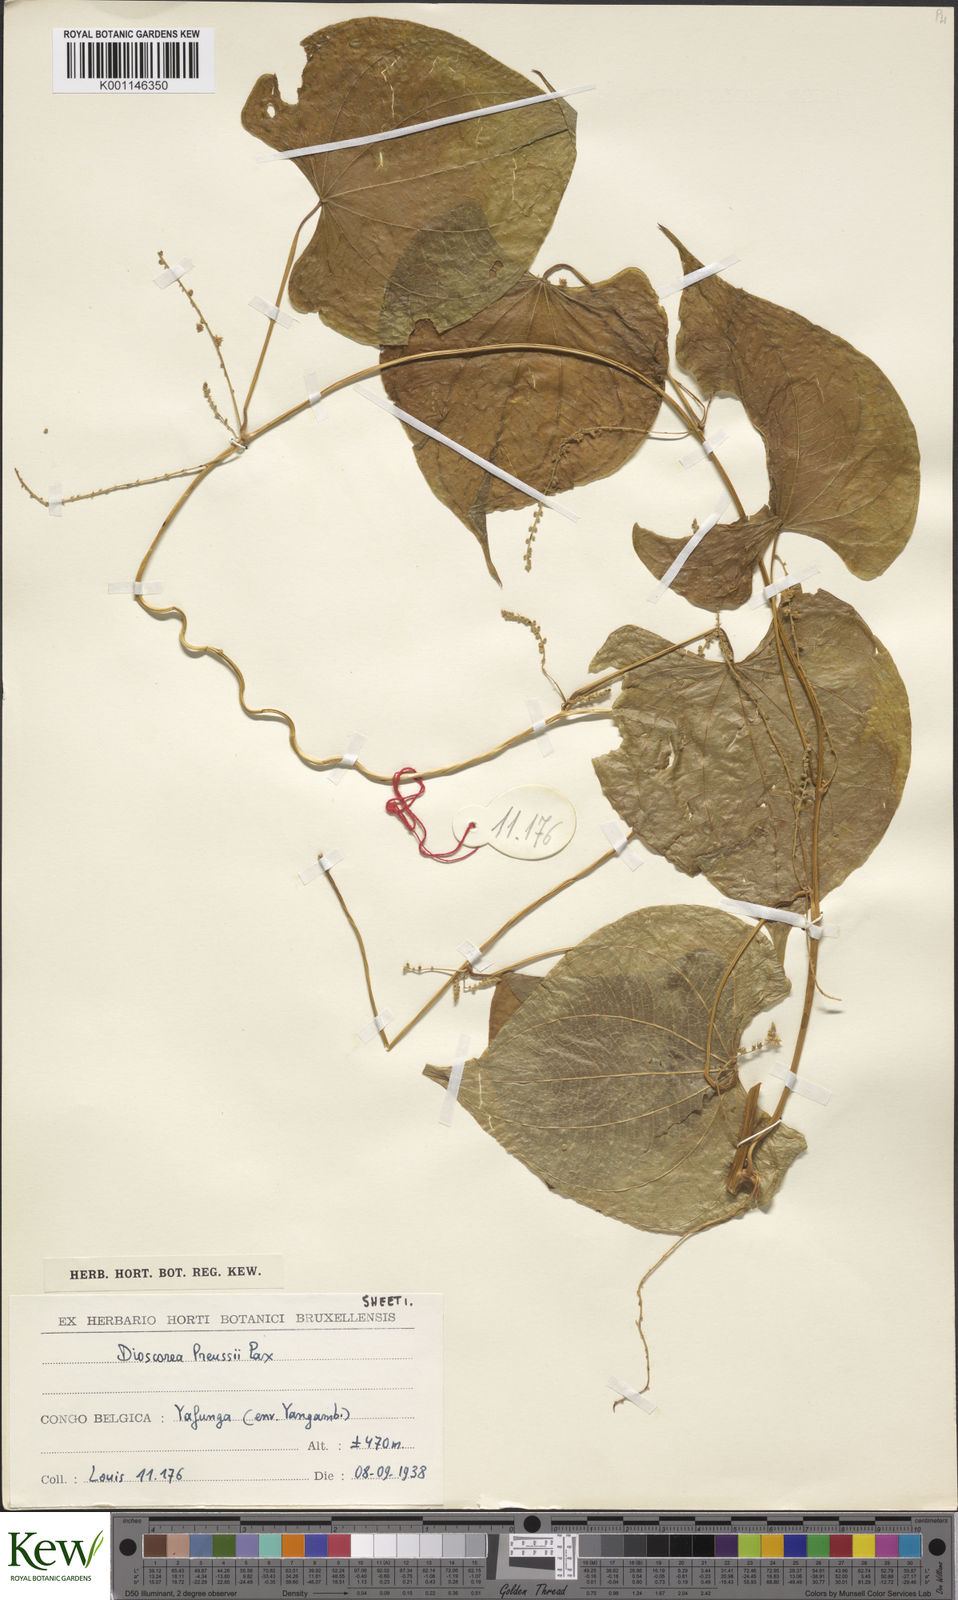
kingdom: Plantae
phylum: Tracheophyta
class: Liliopsida
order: Dioscoreales
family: Dioscoreaceae
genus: Dioscorea
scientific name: Dioscorea preussii
